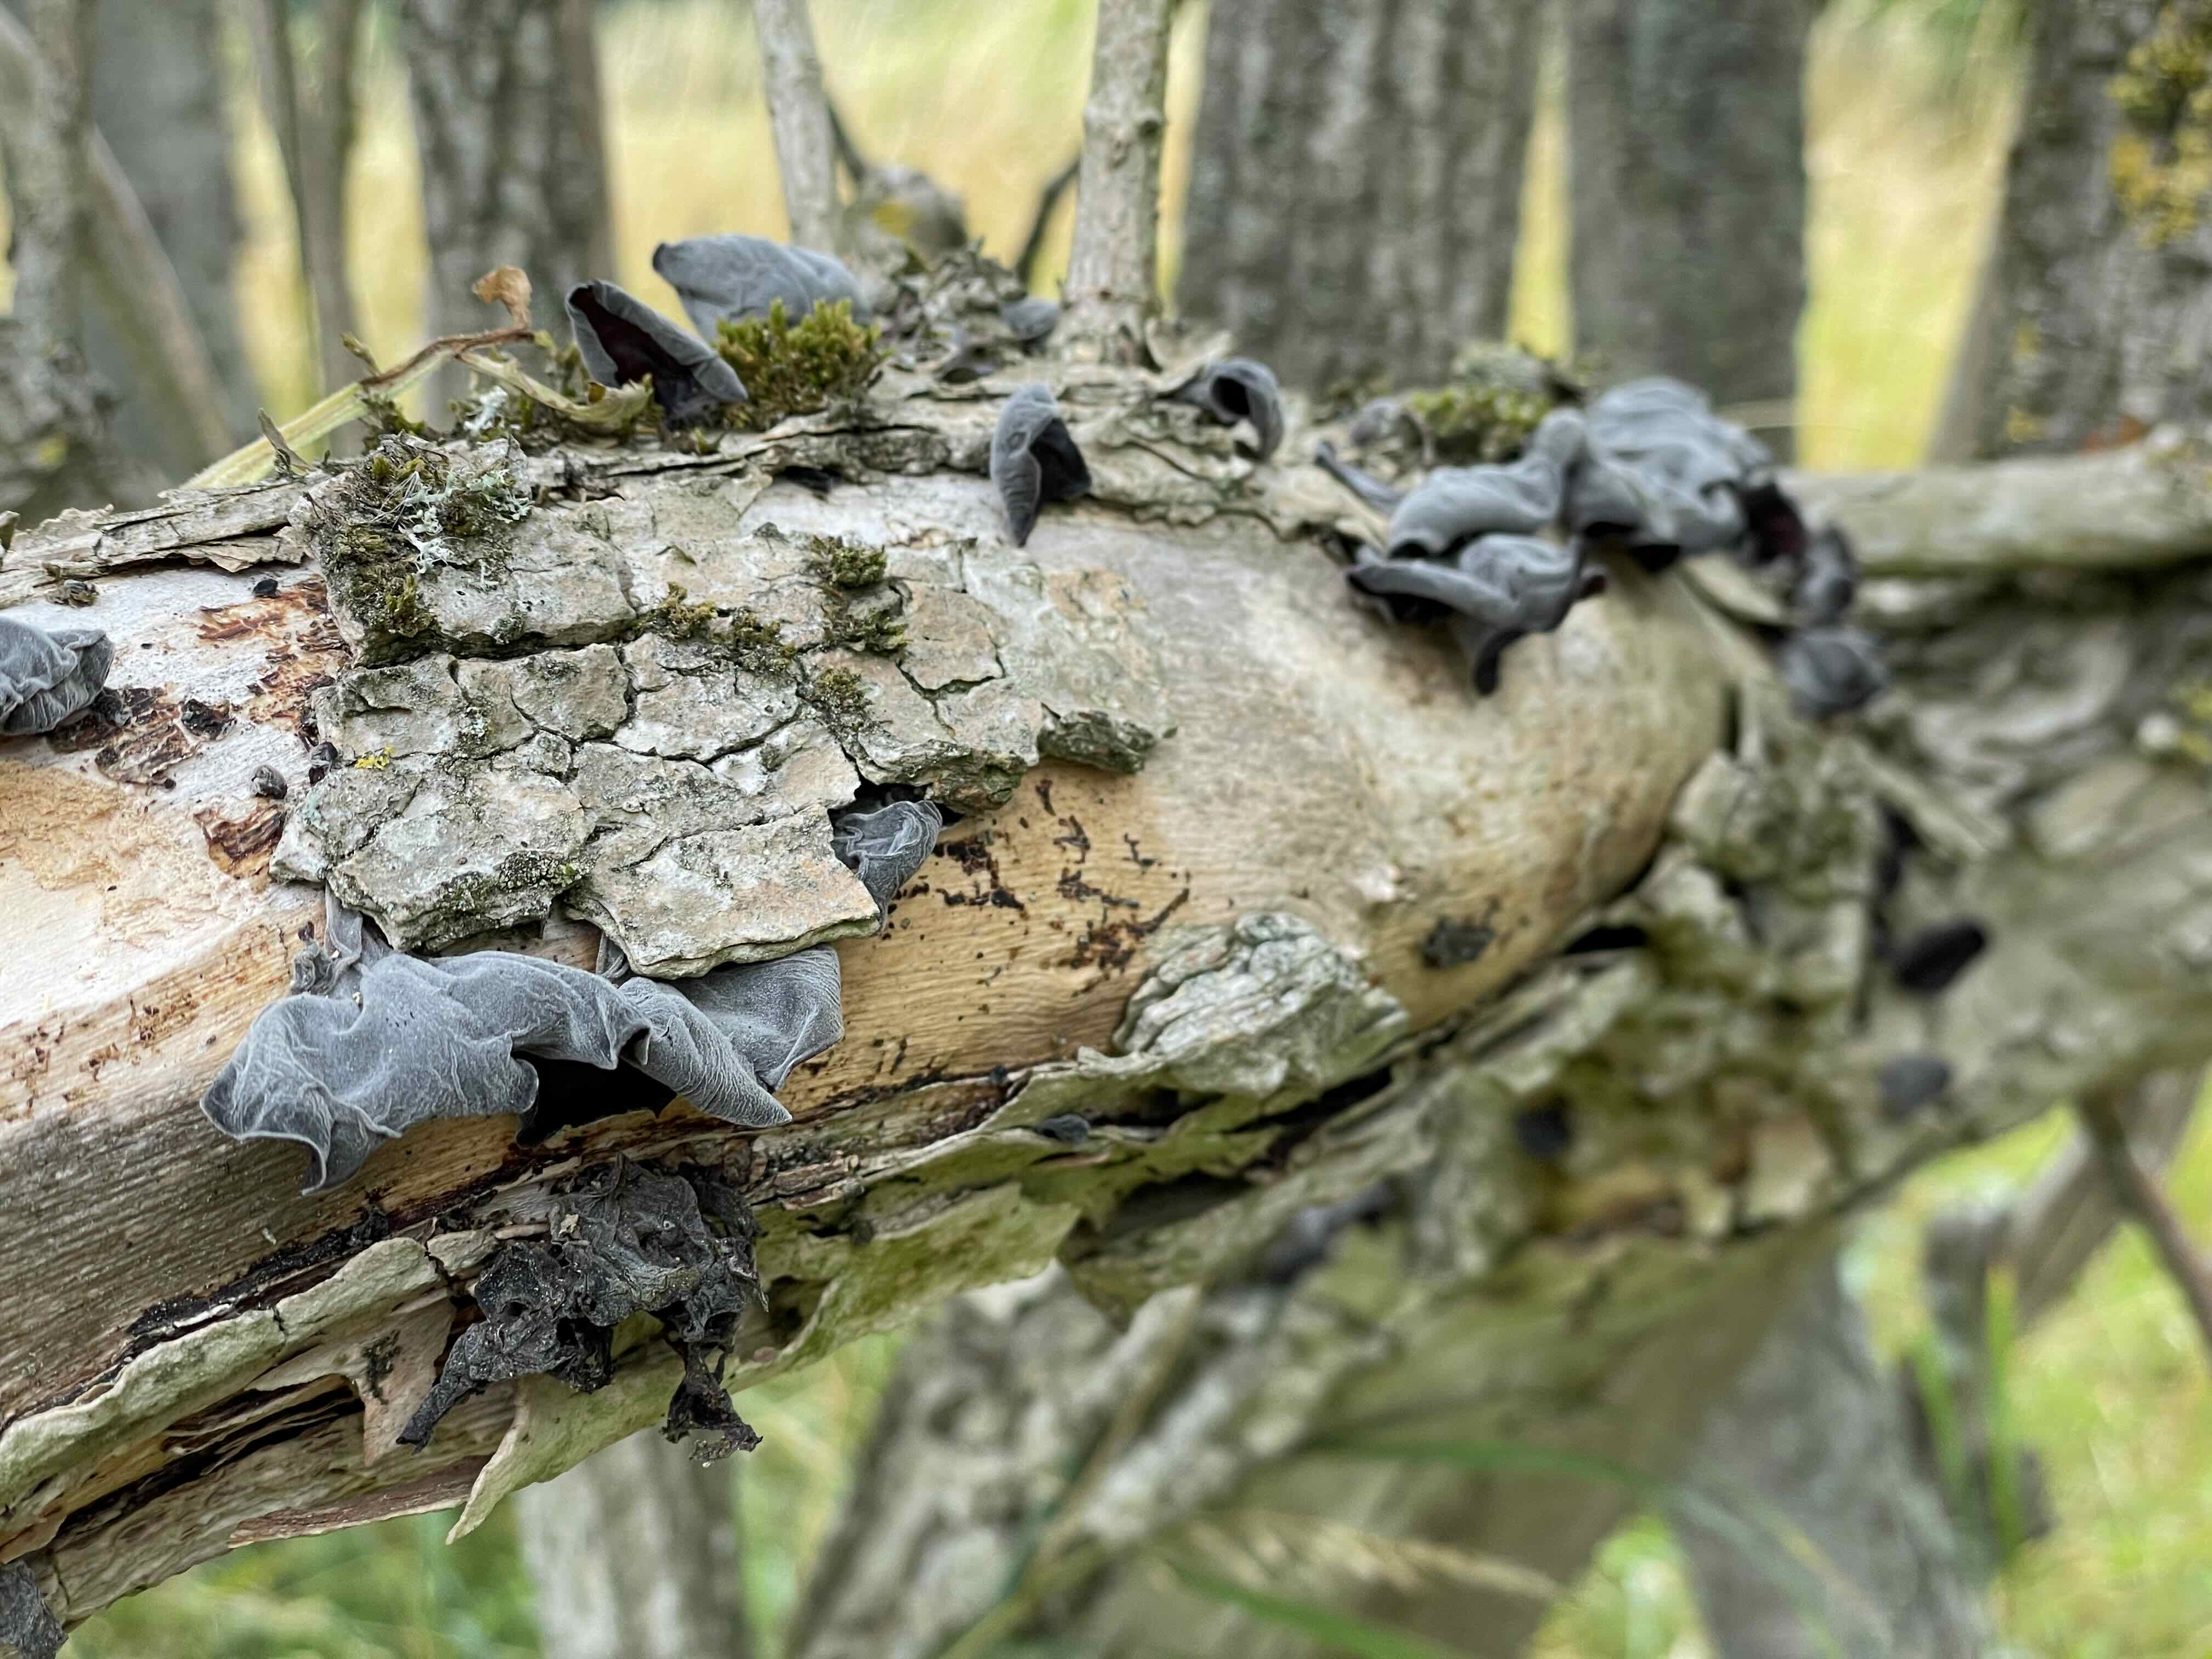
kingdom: Fungi
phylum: Basidiomycota
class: Agaricomycetes
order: Auriculariales
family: Auriculariaceae
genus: Auricularia
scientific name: Auricularia auricula-judae
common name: almindelig judasøre
